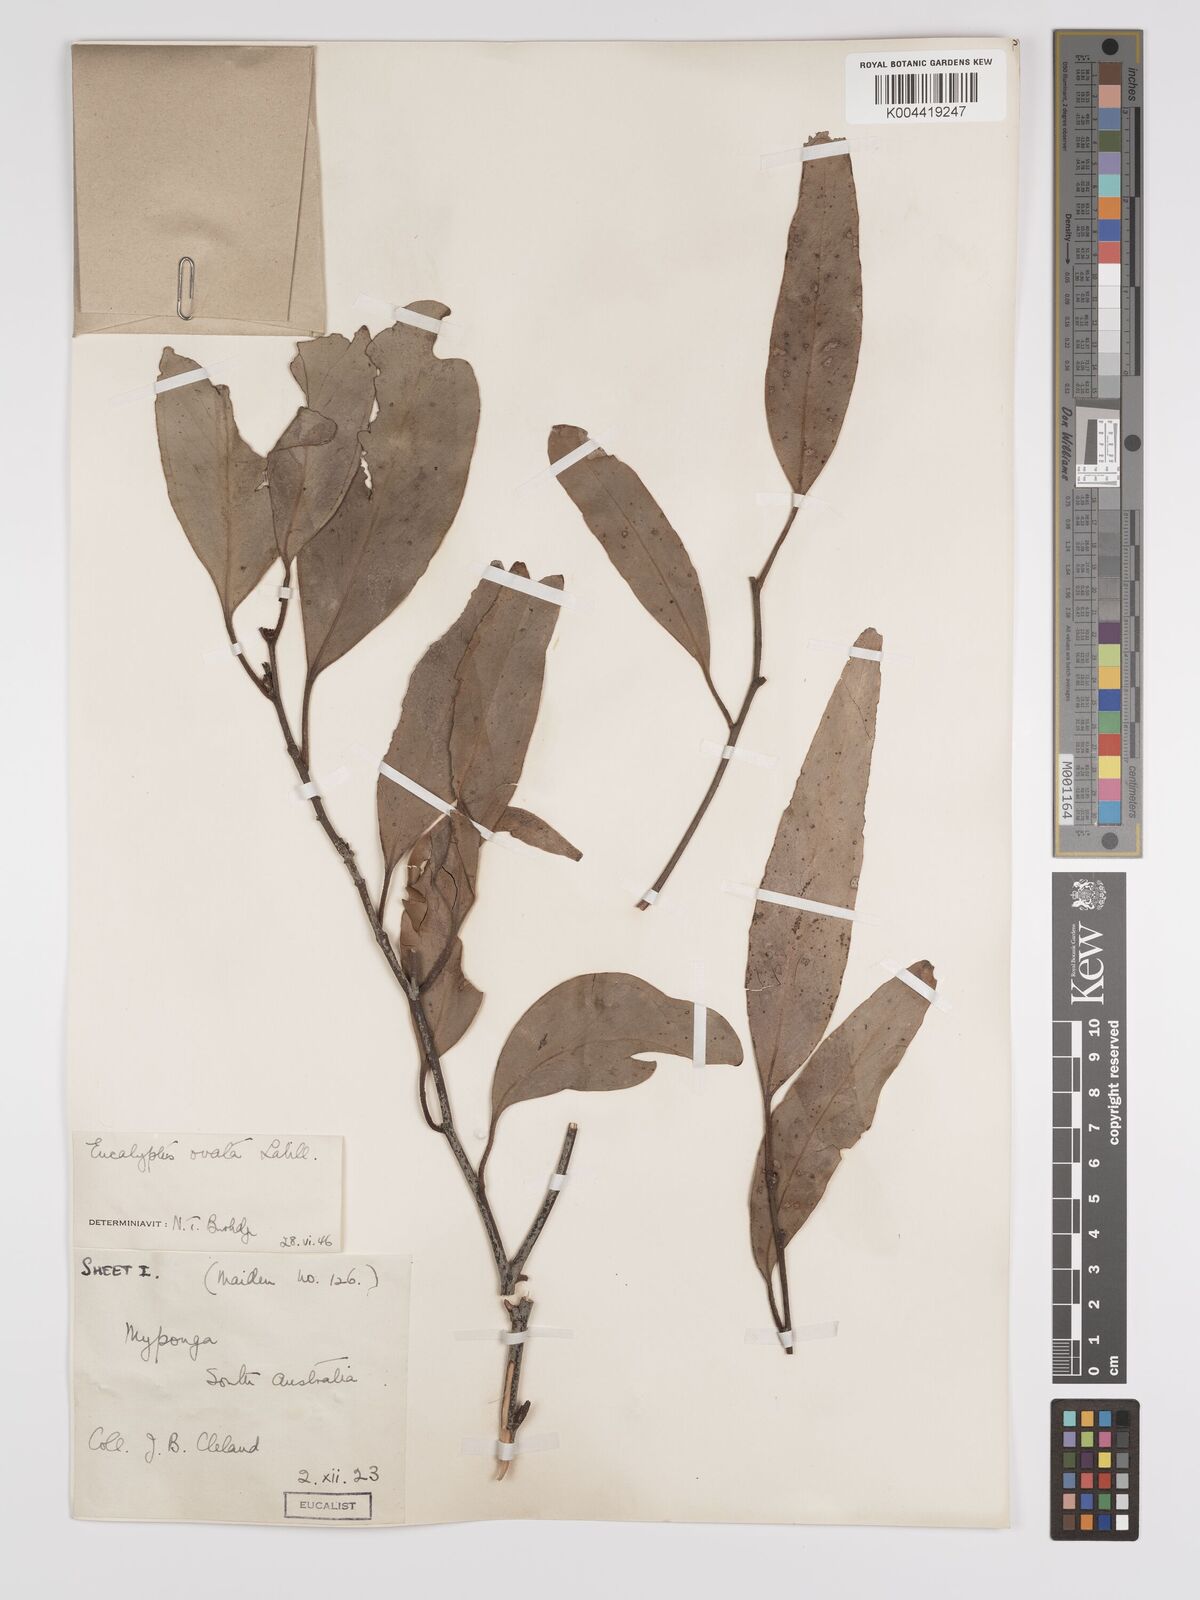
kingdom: Plantae
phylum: Tracheophyta
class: Magnoliopsida
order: Myrtales
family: Myrtaceae
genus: Eucalyptus
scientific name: Eucalyptus ovata
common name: Black-gum
